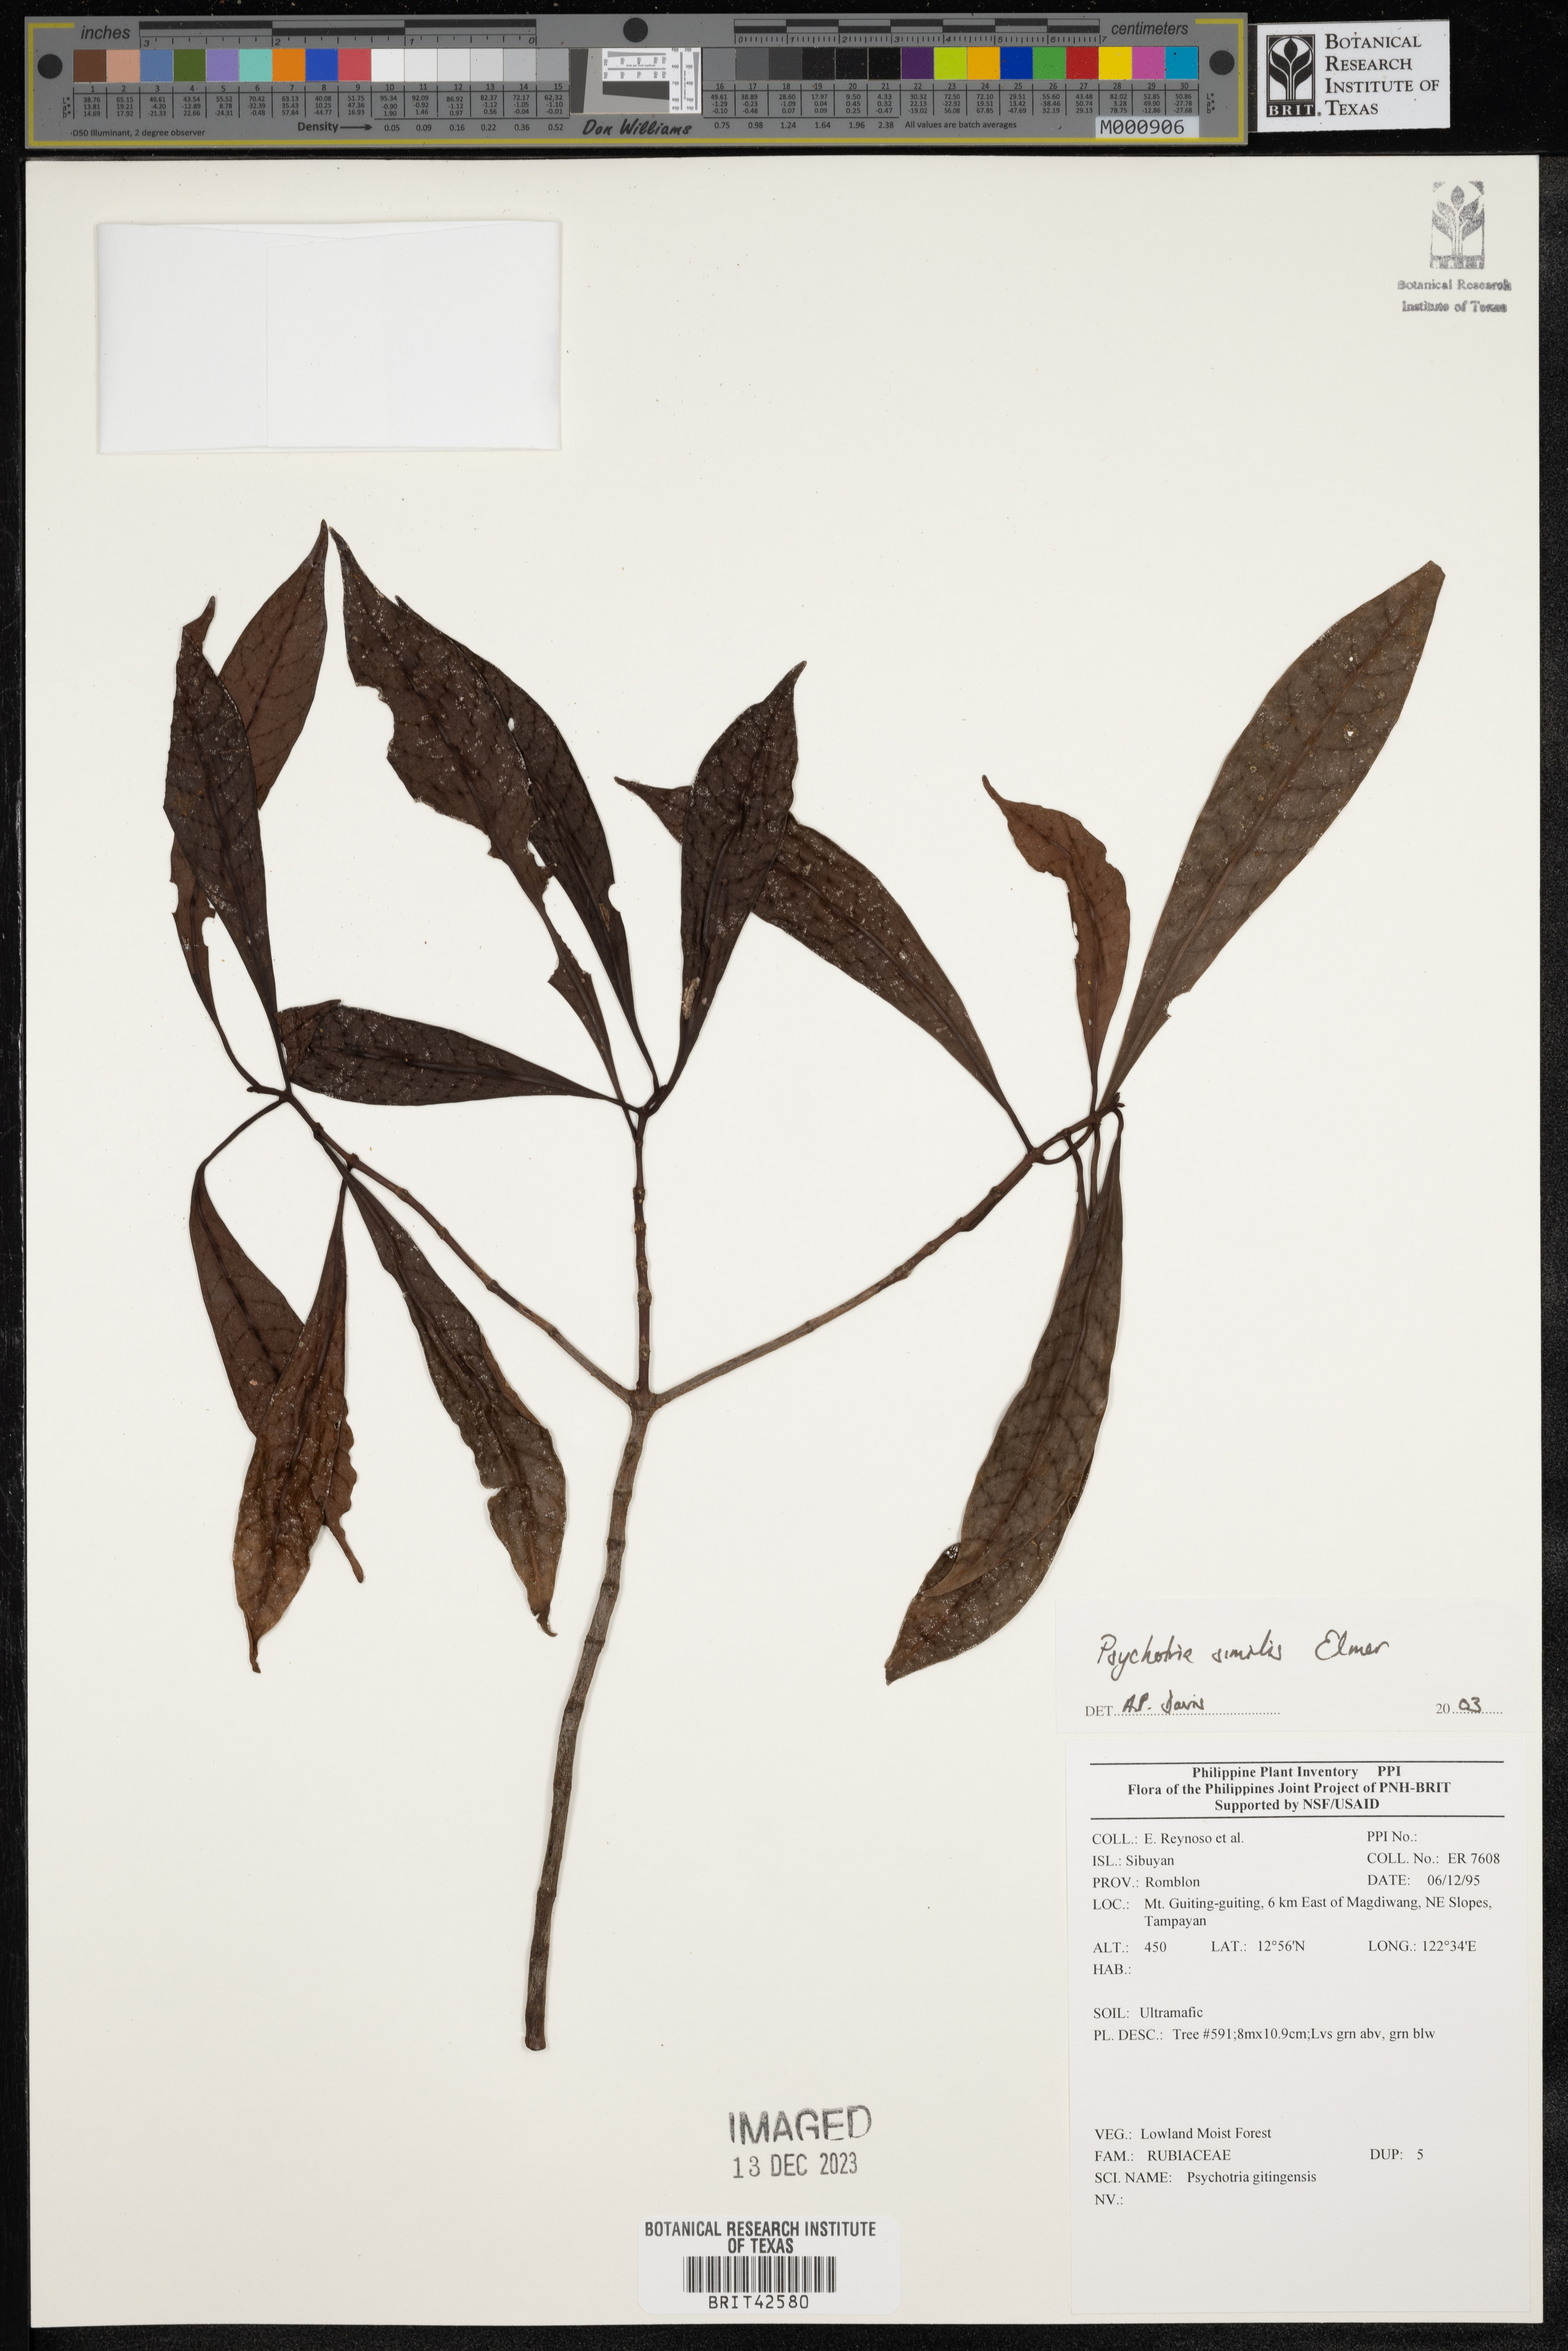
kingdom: Plantae
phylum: Tracheophyta
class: Magnoliopsida
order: Gentianales
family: Rubiaceae
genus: Psychotria
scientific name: Psychotria
